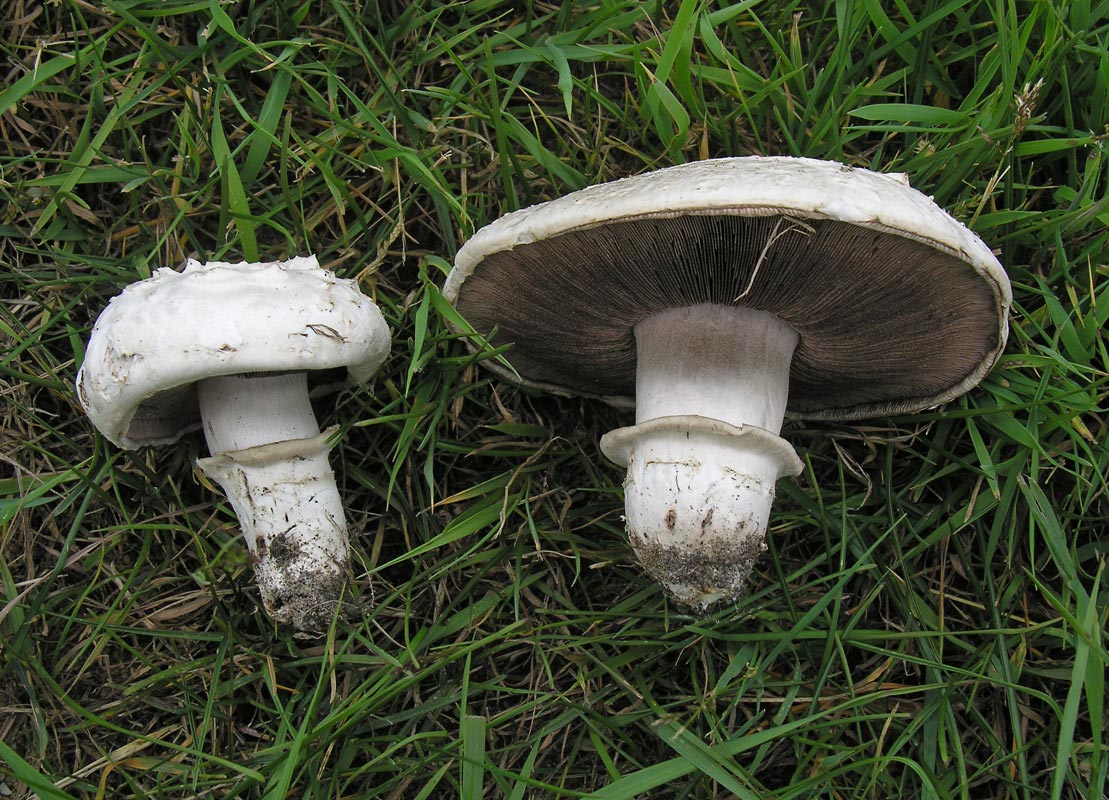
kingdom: Fungi
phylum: Basidiomycota
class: Agaricomycetes
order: Agaricales
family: Agaricaceae
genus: Agaricus
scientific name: Agaricus bitorquis
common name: vej-champignon
